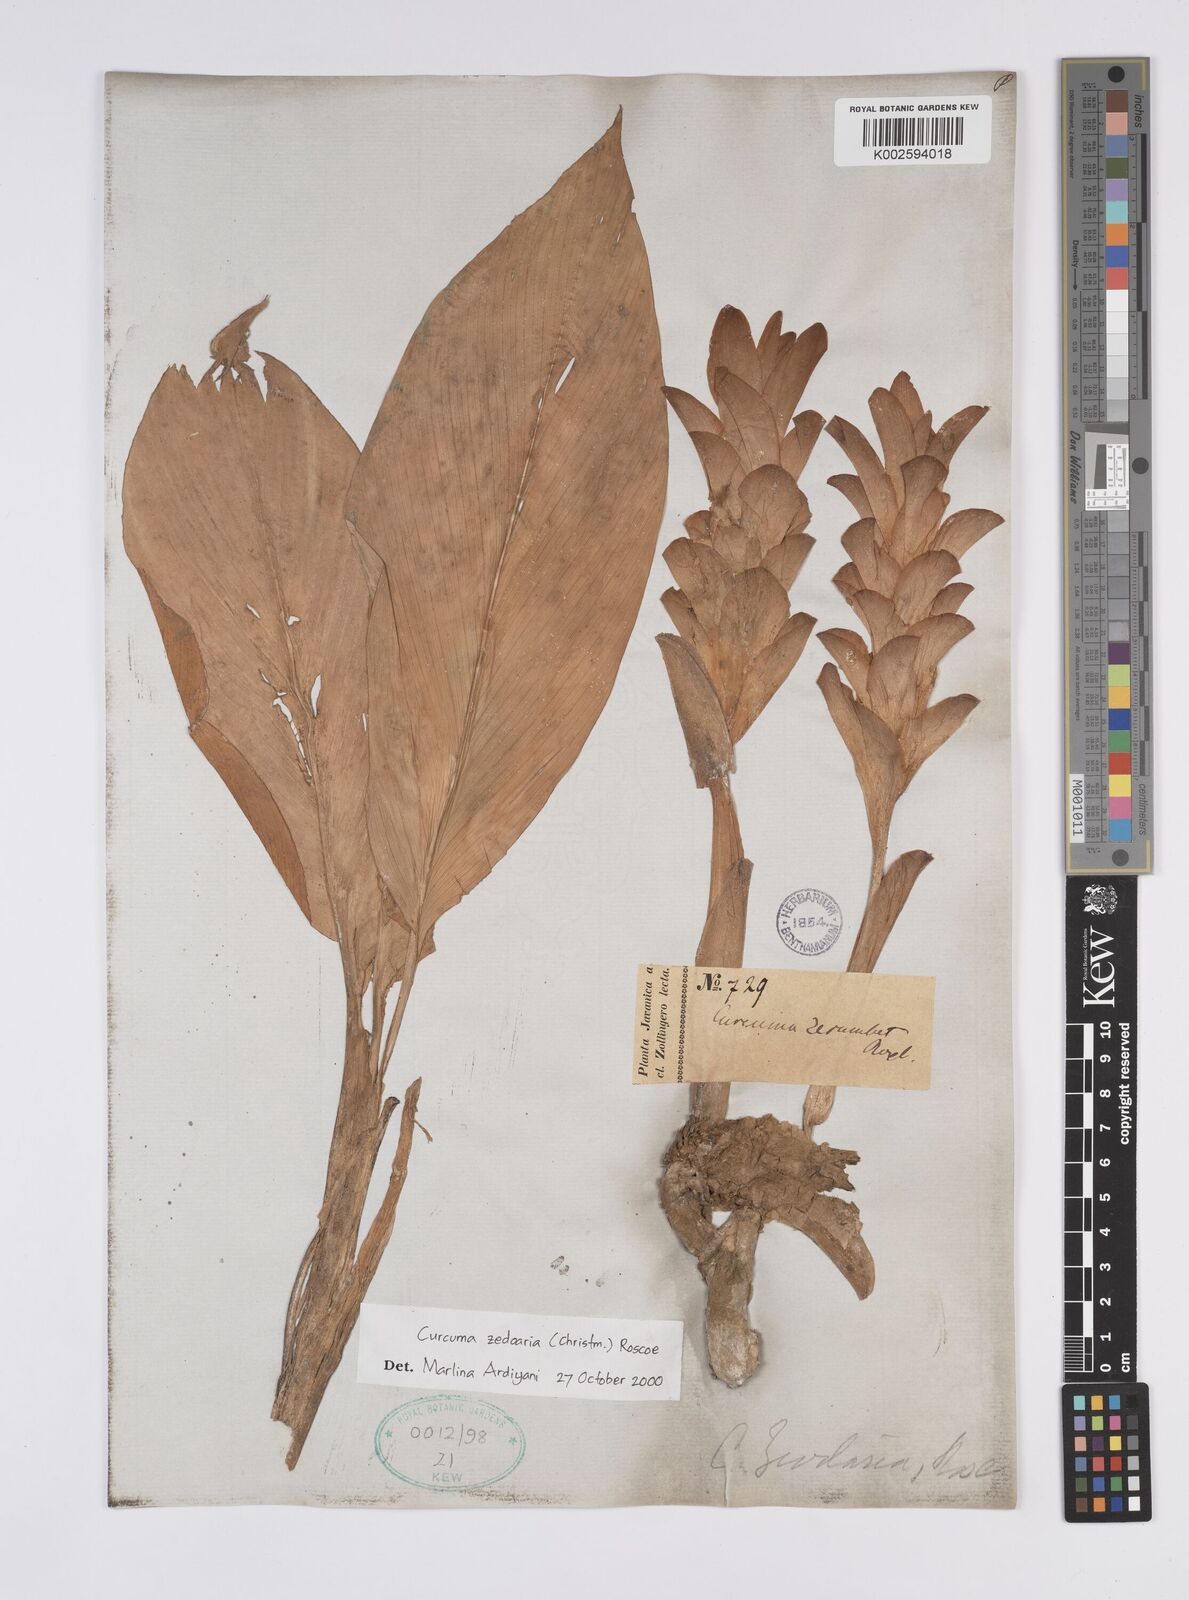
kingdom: Plantae
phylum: Tracheophyta
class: Liliopsida
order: Zingiberales
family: Zingiberaceae
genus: Curcuma
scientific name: Curcuma zedoaria
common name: Zedoary
